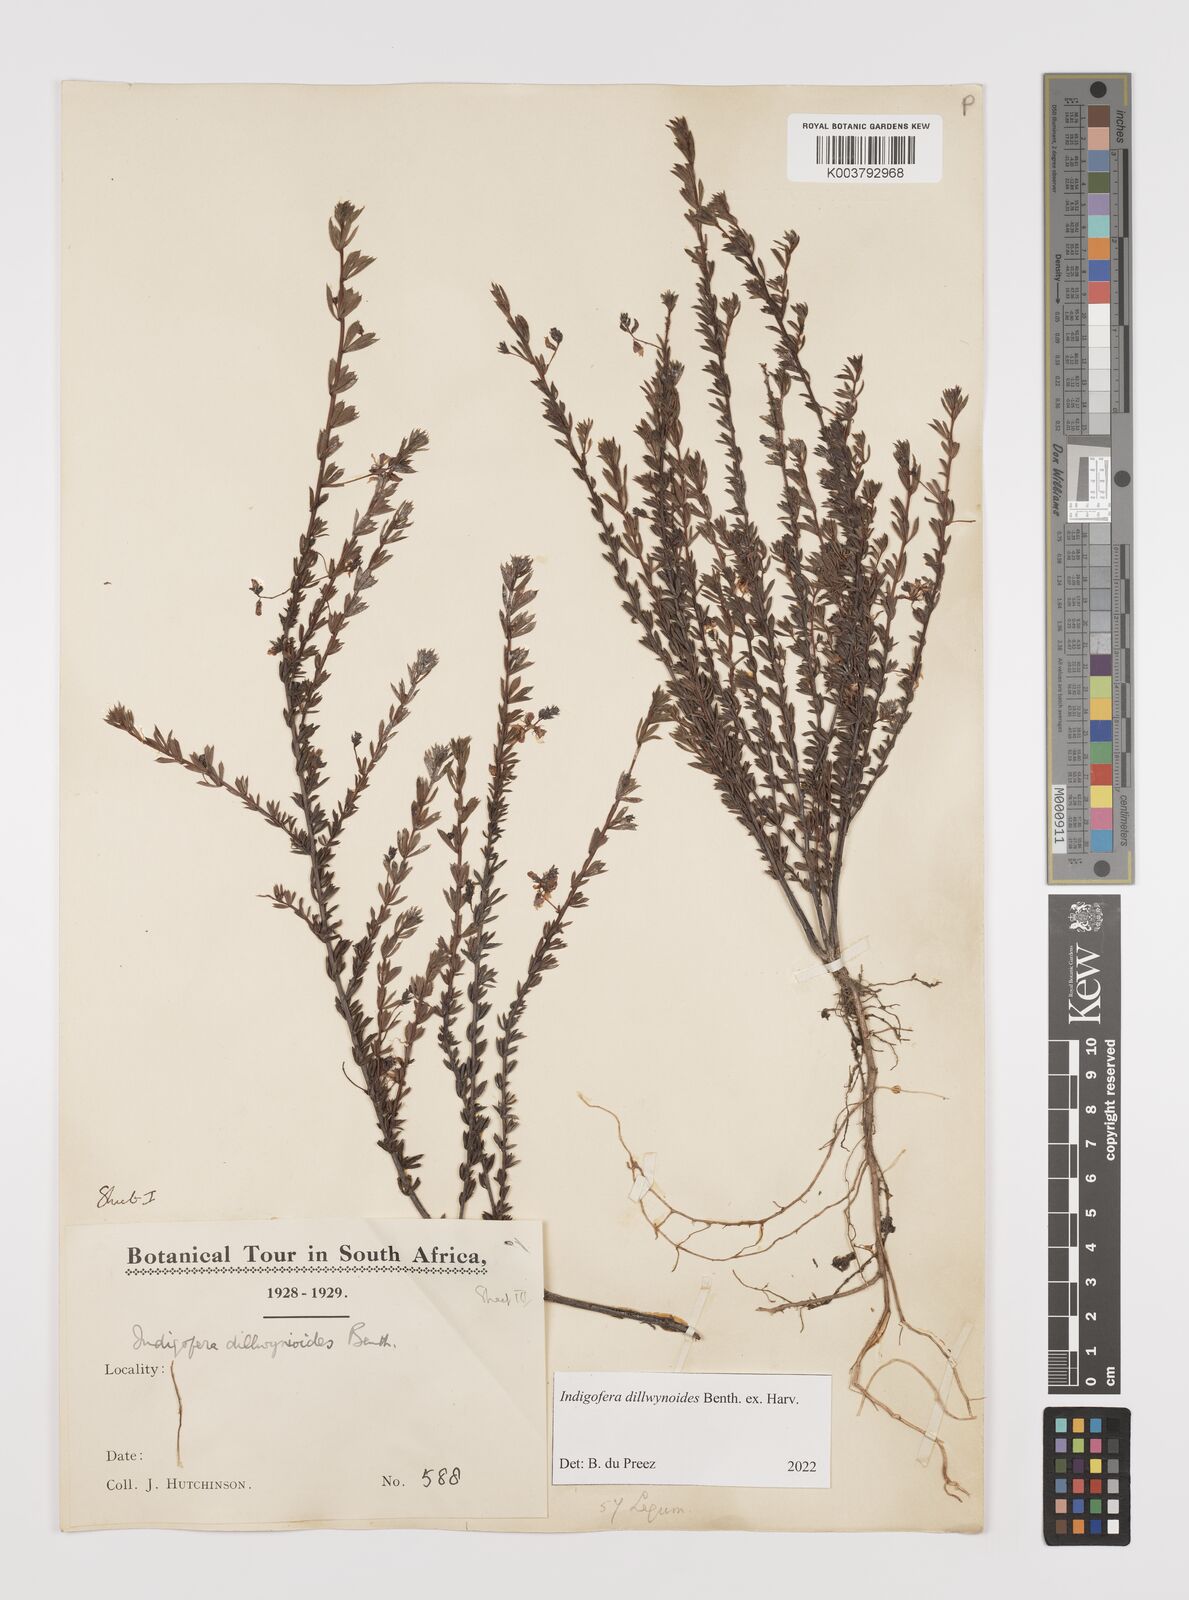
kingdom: Plantae
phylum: Tracheophyta
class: Magnoliopsida
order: Fabales
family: Fabaceae
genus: Indigofera
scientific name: Indigofera dillwynioides
